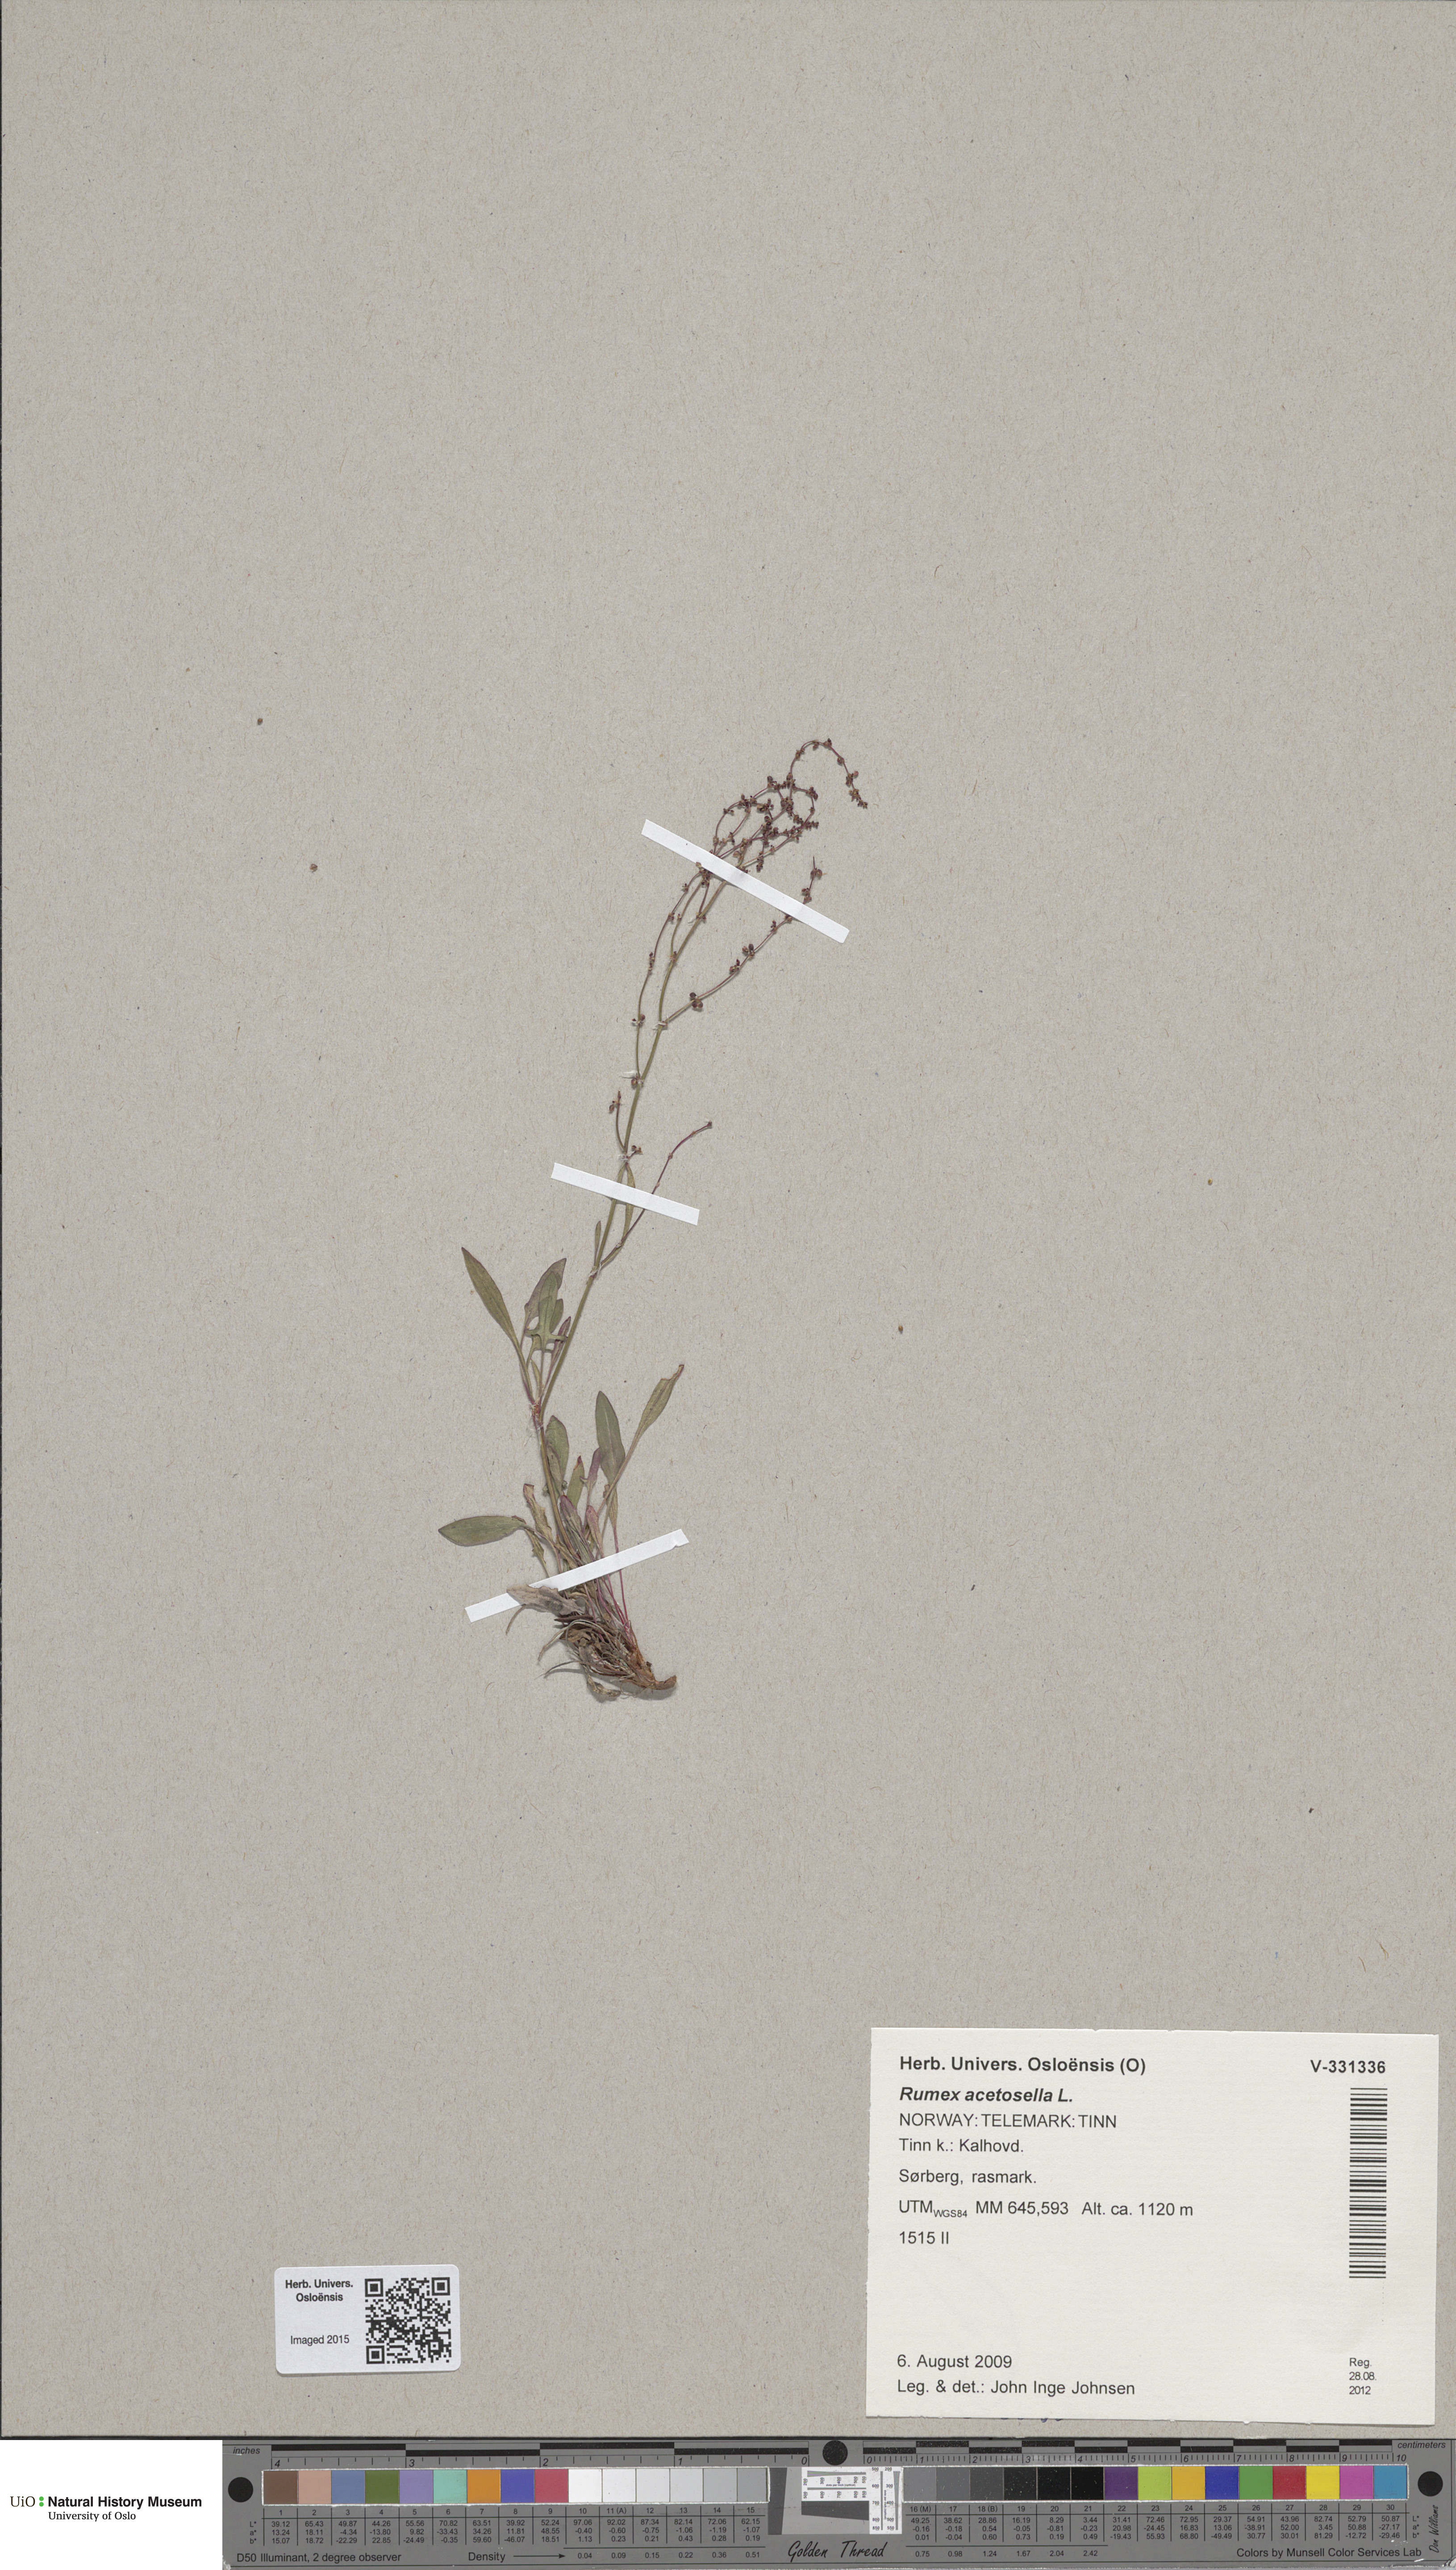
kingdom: Plantae
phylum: Tracheophyta
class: Magnoliopsida
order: Caryophyllales
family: Polygonaceae
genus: Rumex
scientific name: Rumex acetosella
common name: Common sheep sorrel
